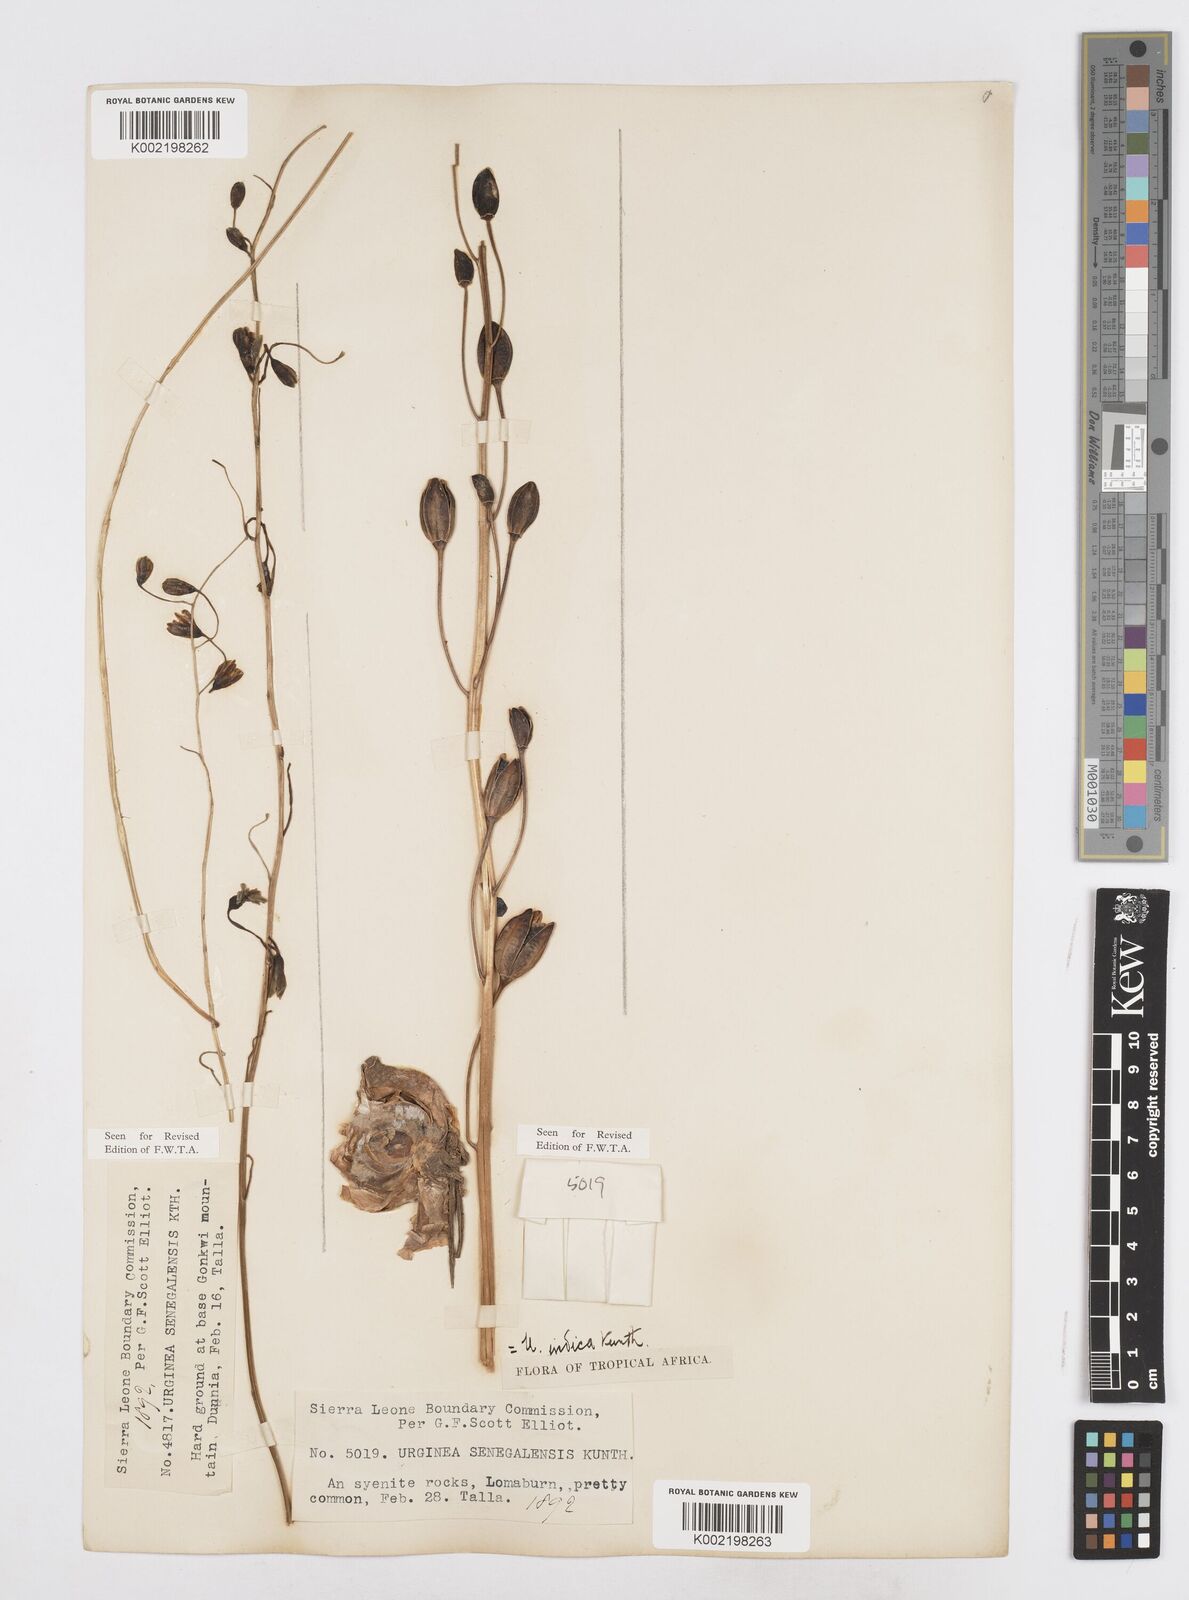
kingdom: Plantae
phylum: Tracheophyta
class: Liliopsida
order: Asparagales
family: Asparagaceae
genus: Drimia
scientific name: Drimia indica
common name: Indian-squill
